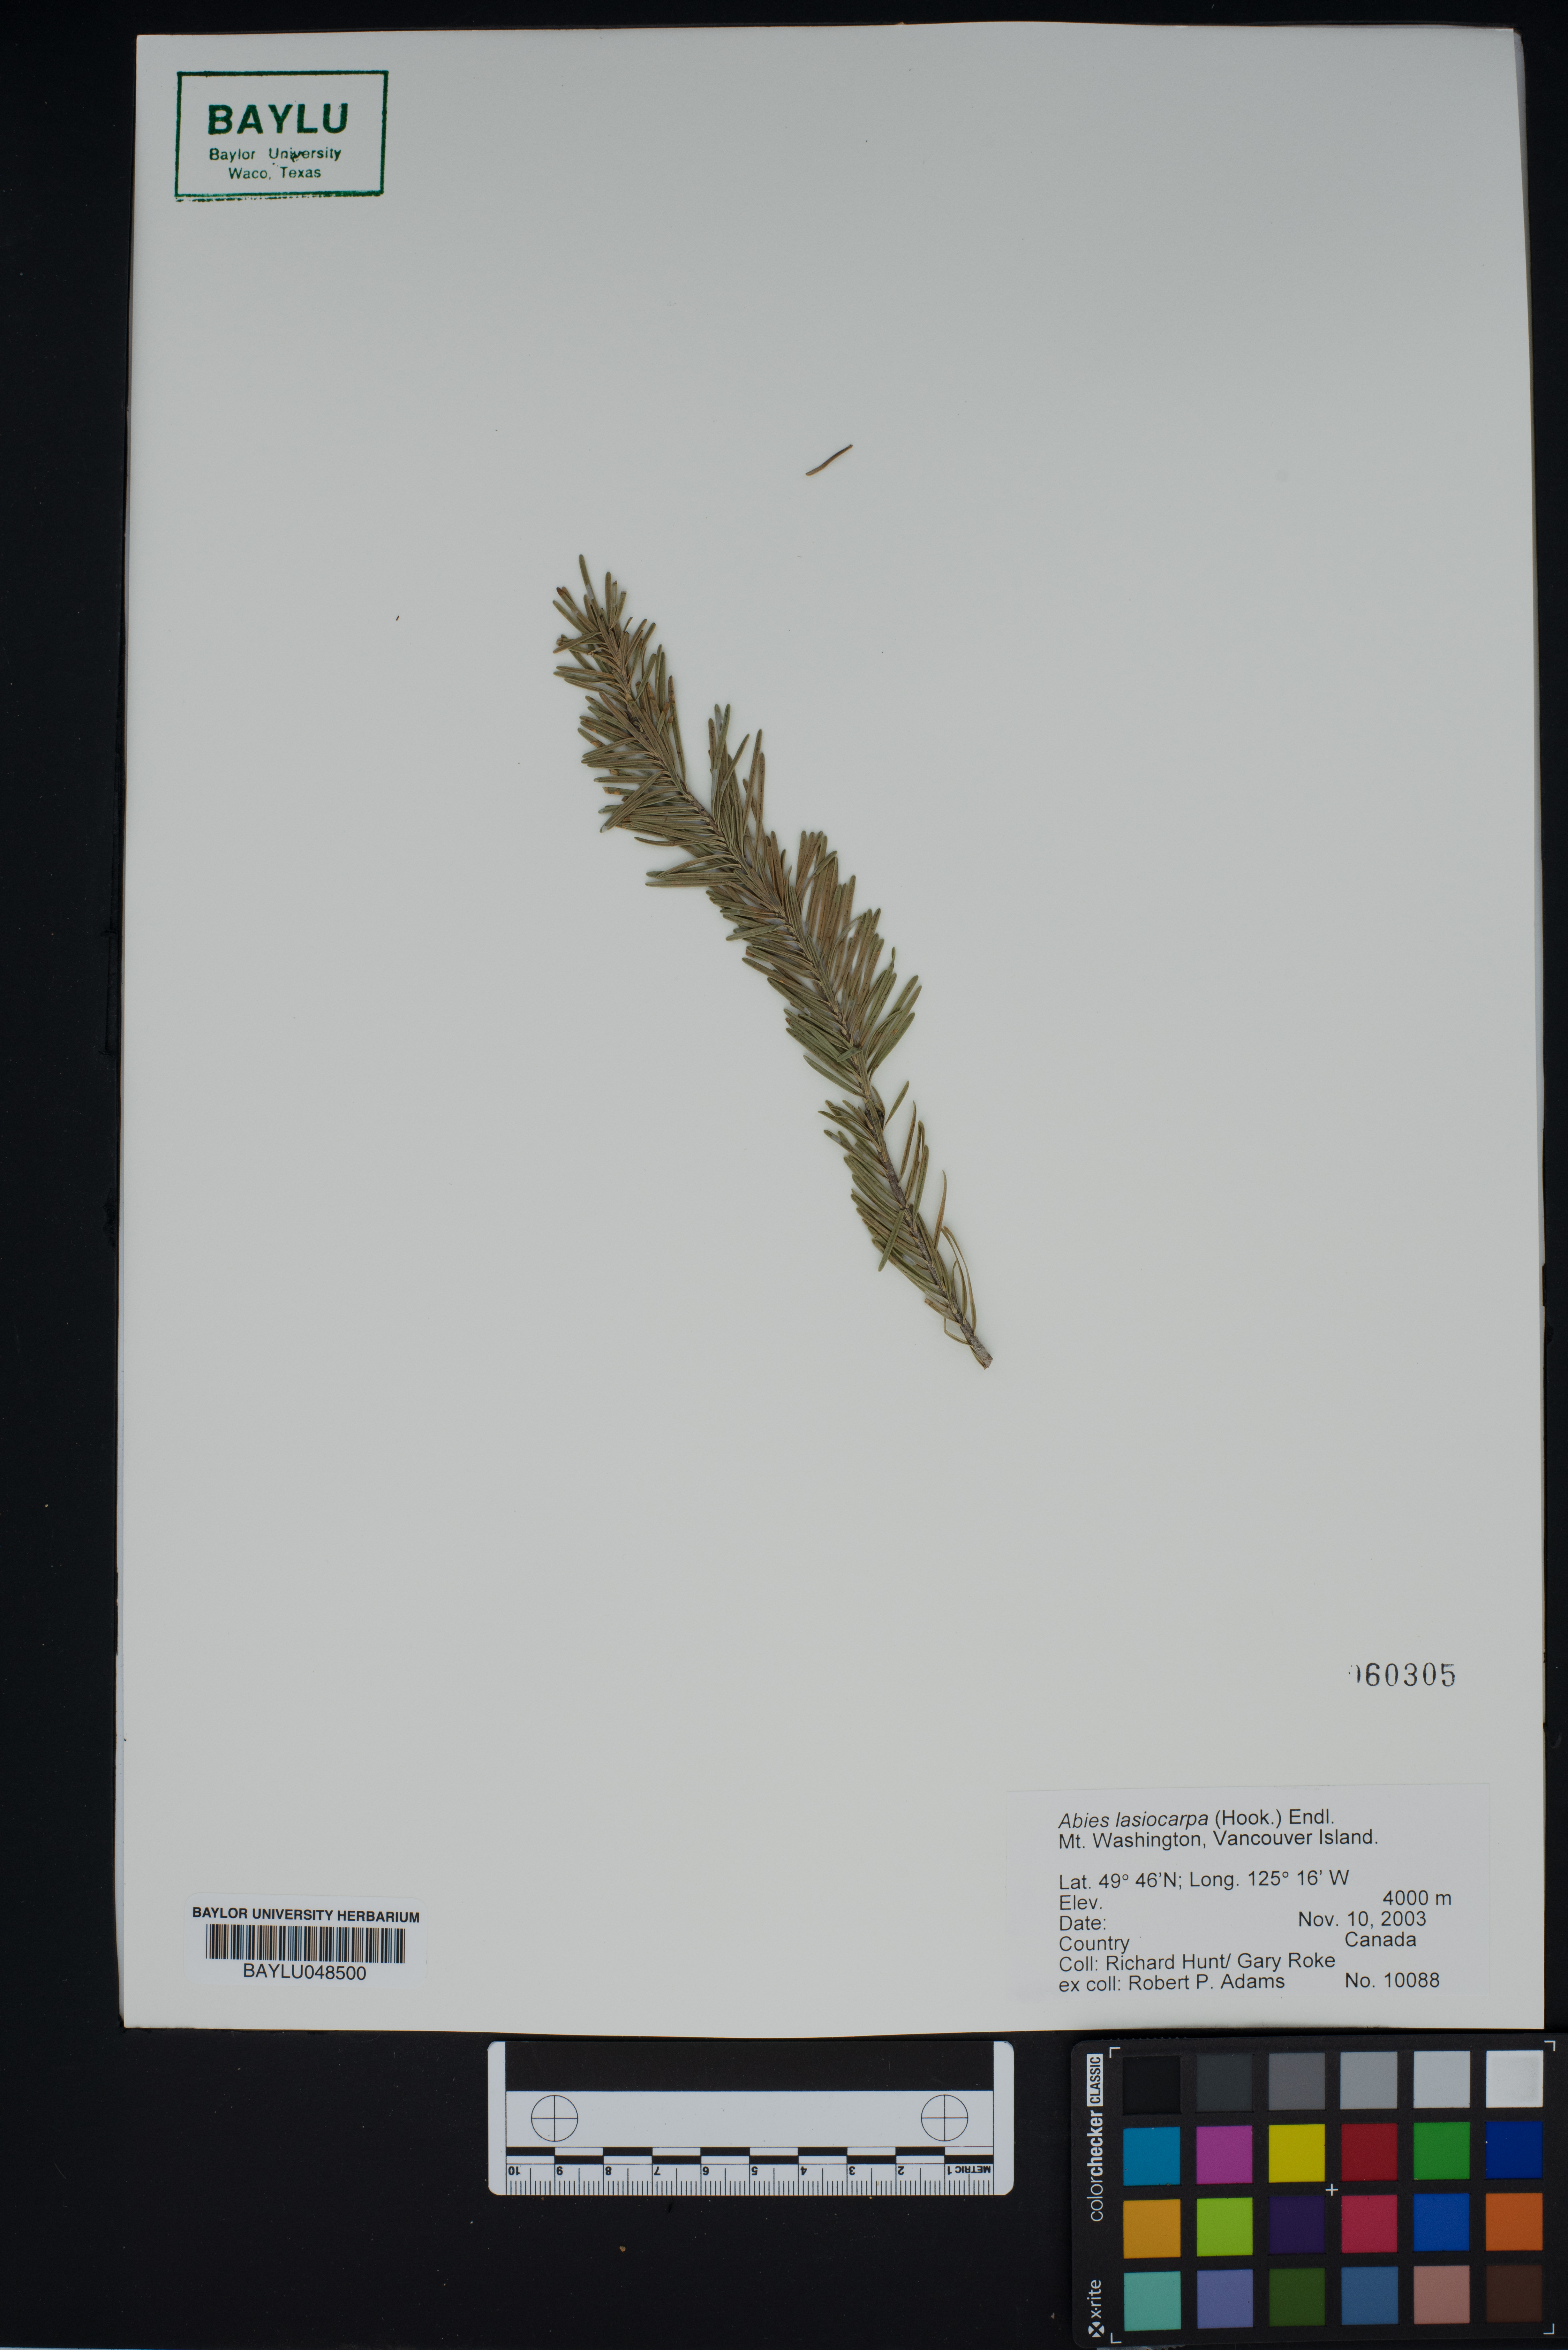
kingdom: Plantae
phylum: Tracheophyta
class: Pinopsida
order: Pinales
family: Pinaceae
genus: Abies
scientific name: Abies lasiocarpa
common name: Subalpine fir
